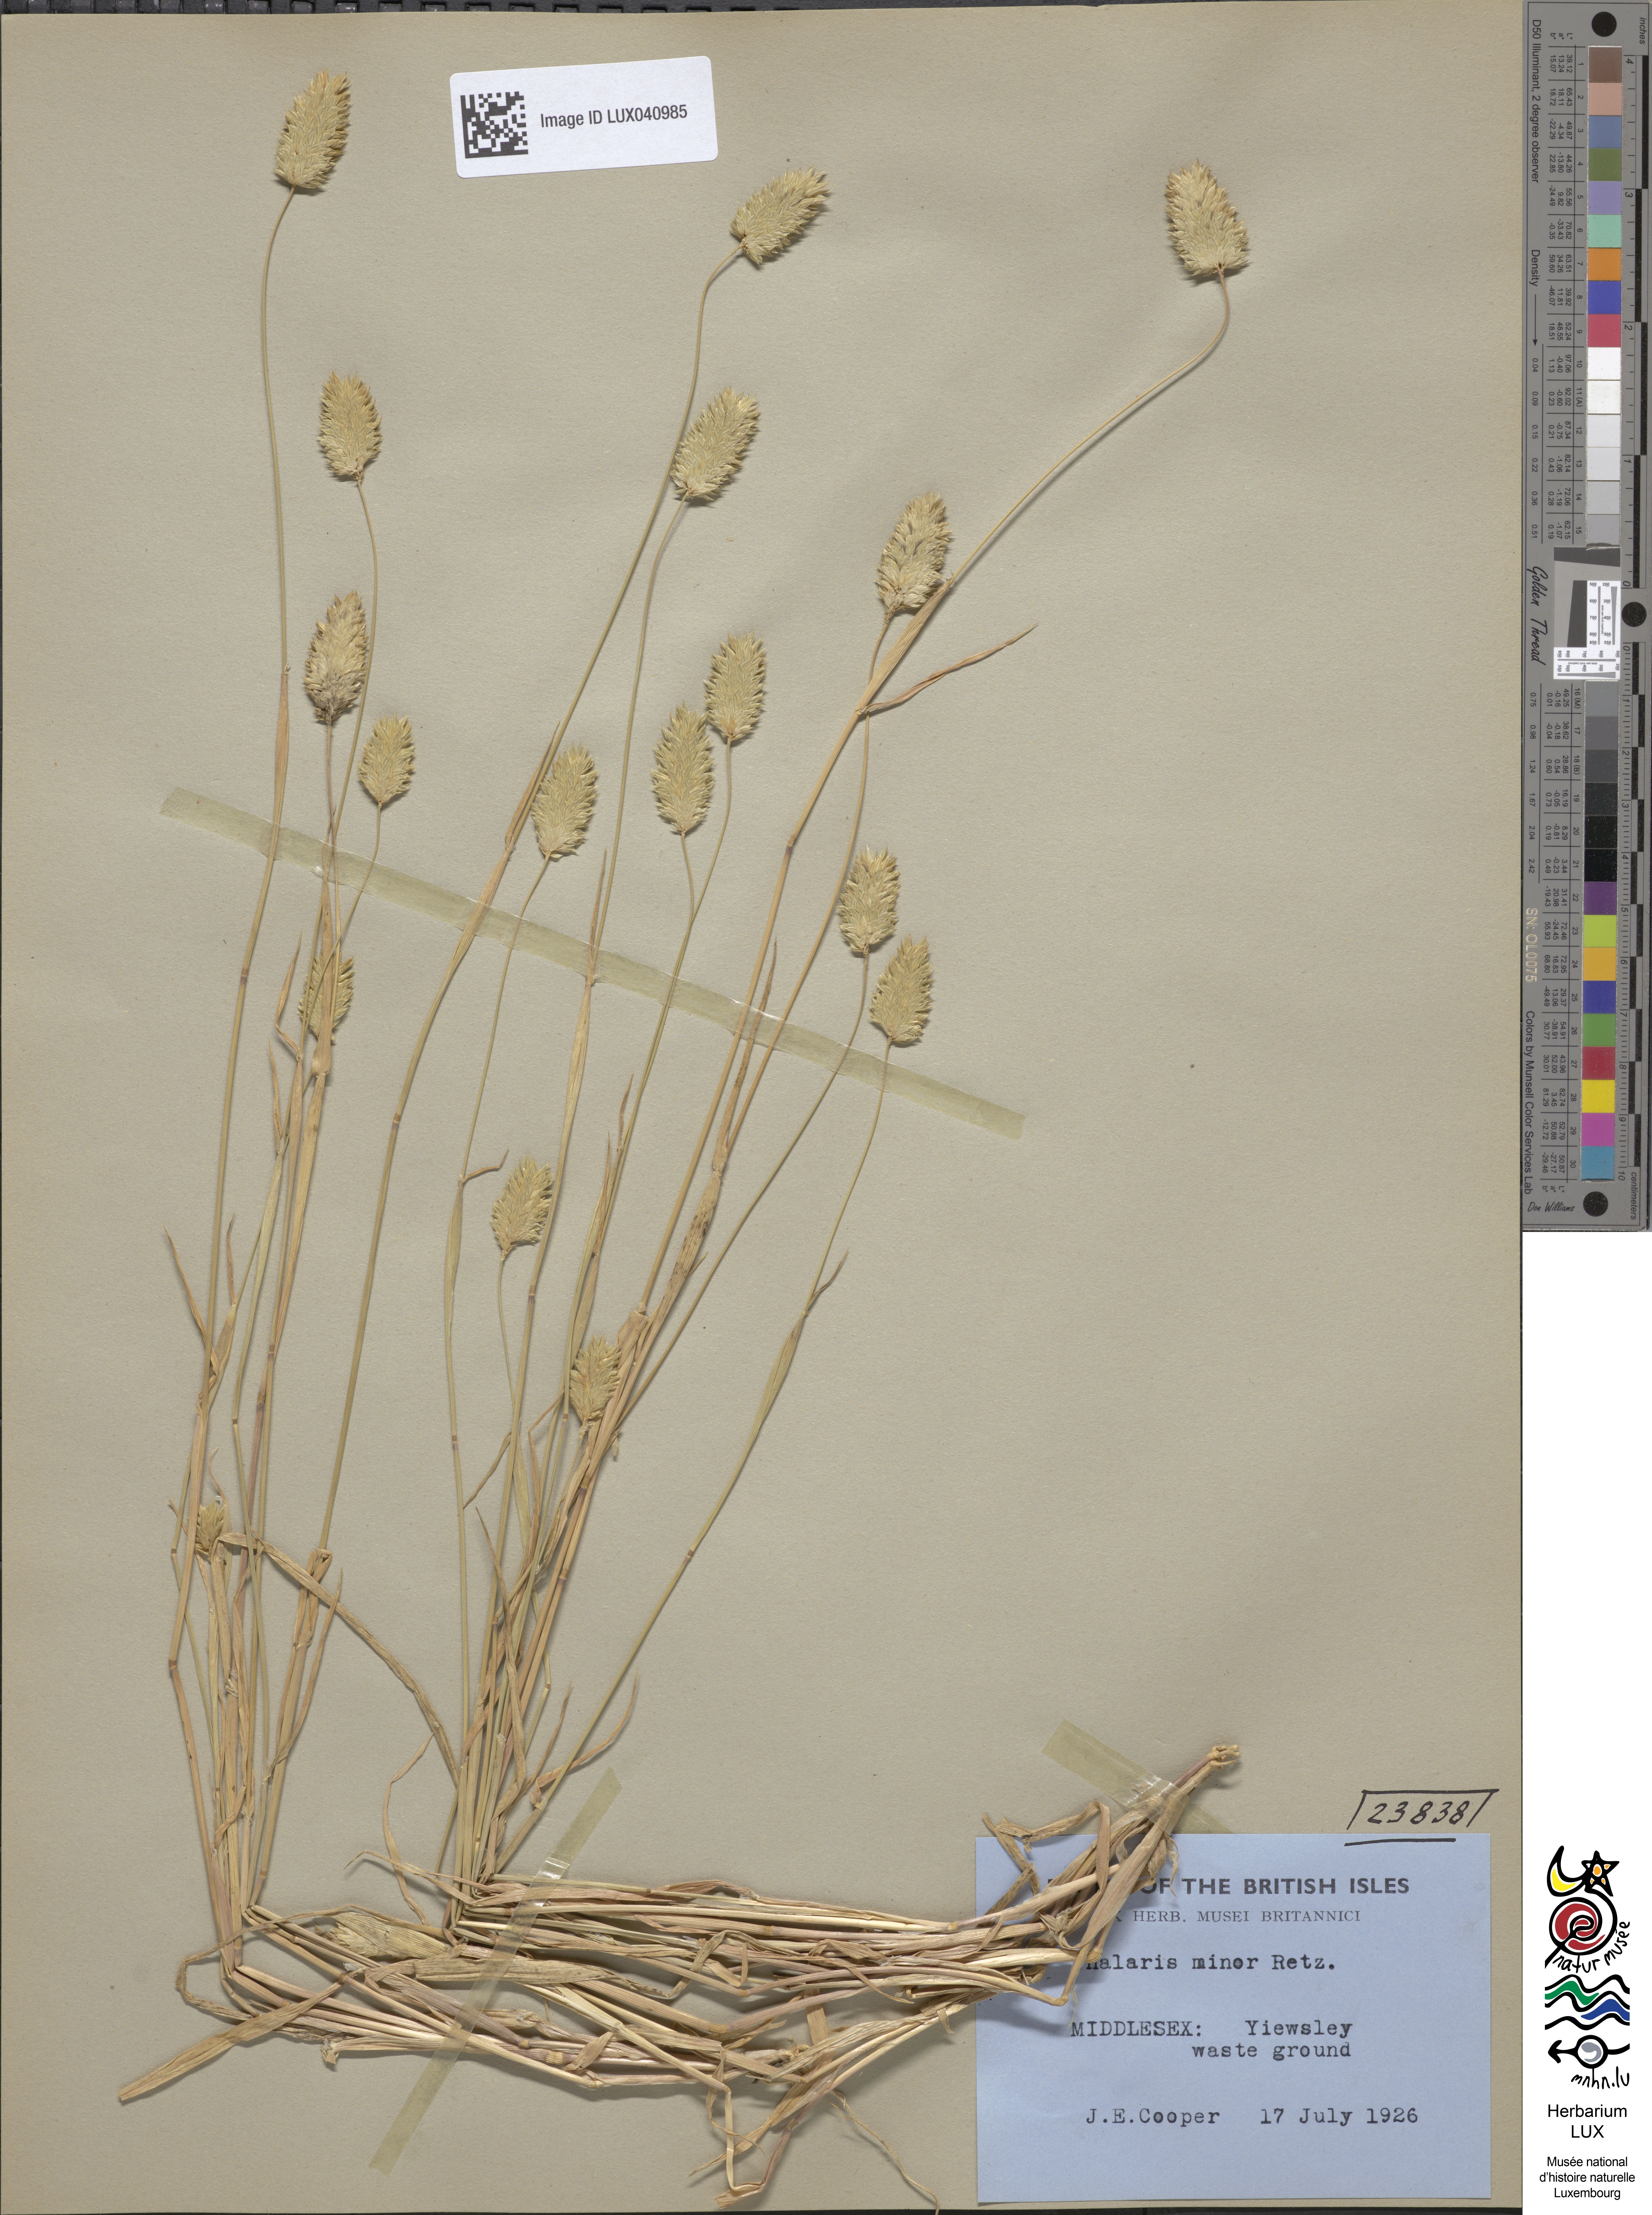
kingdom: Plantae
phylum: Tracheophyta
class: Liliopsida
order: Poales
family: Poaceae
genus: Phalaris
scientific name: Phalaris minor
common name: Littleseed canarygrass
